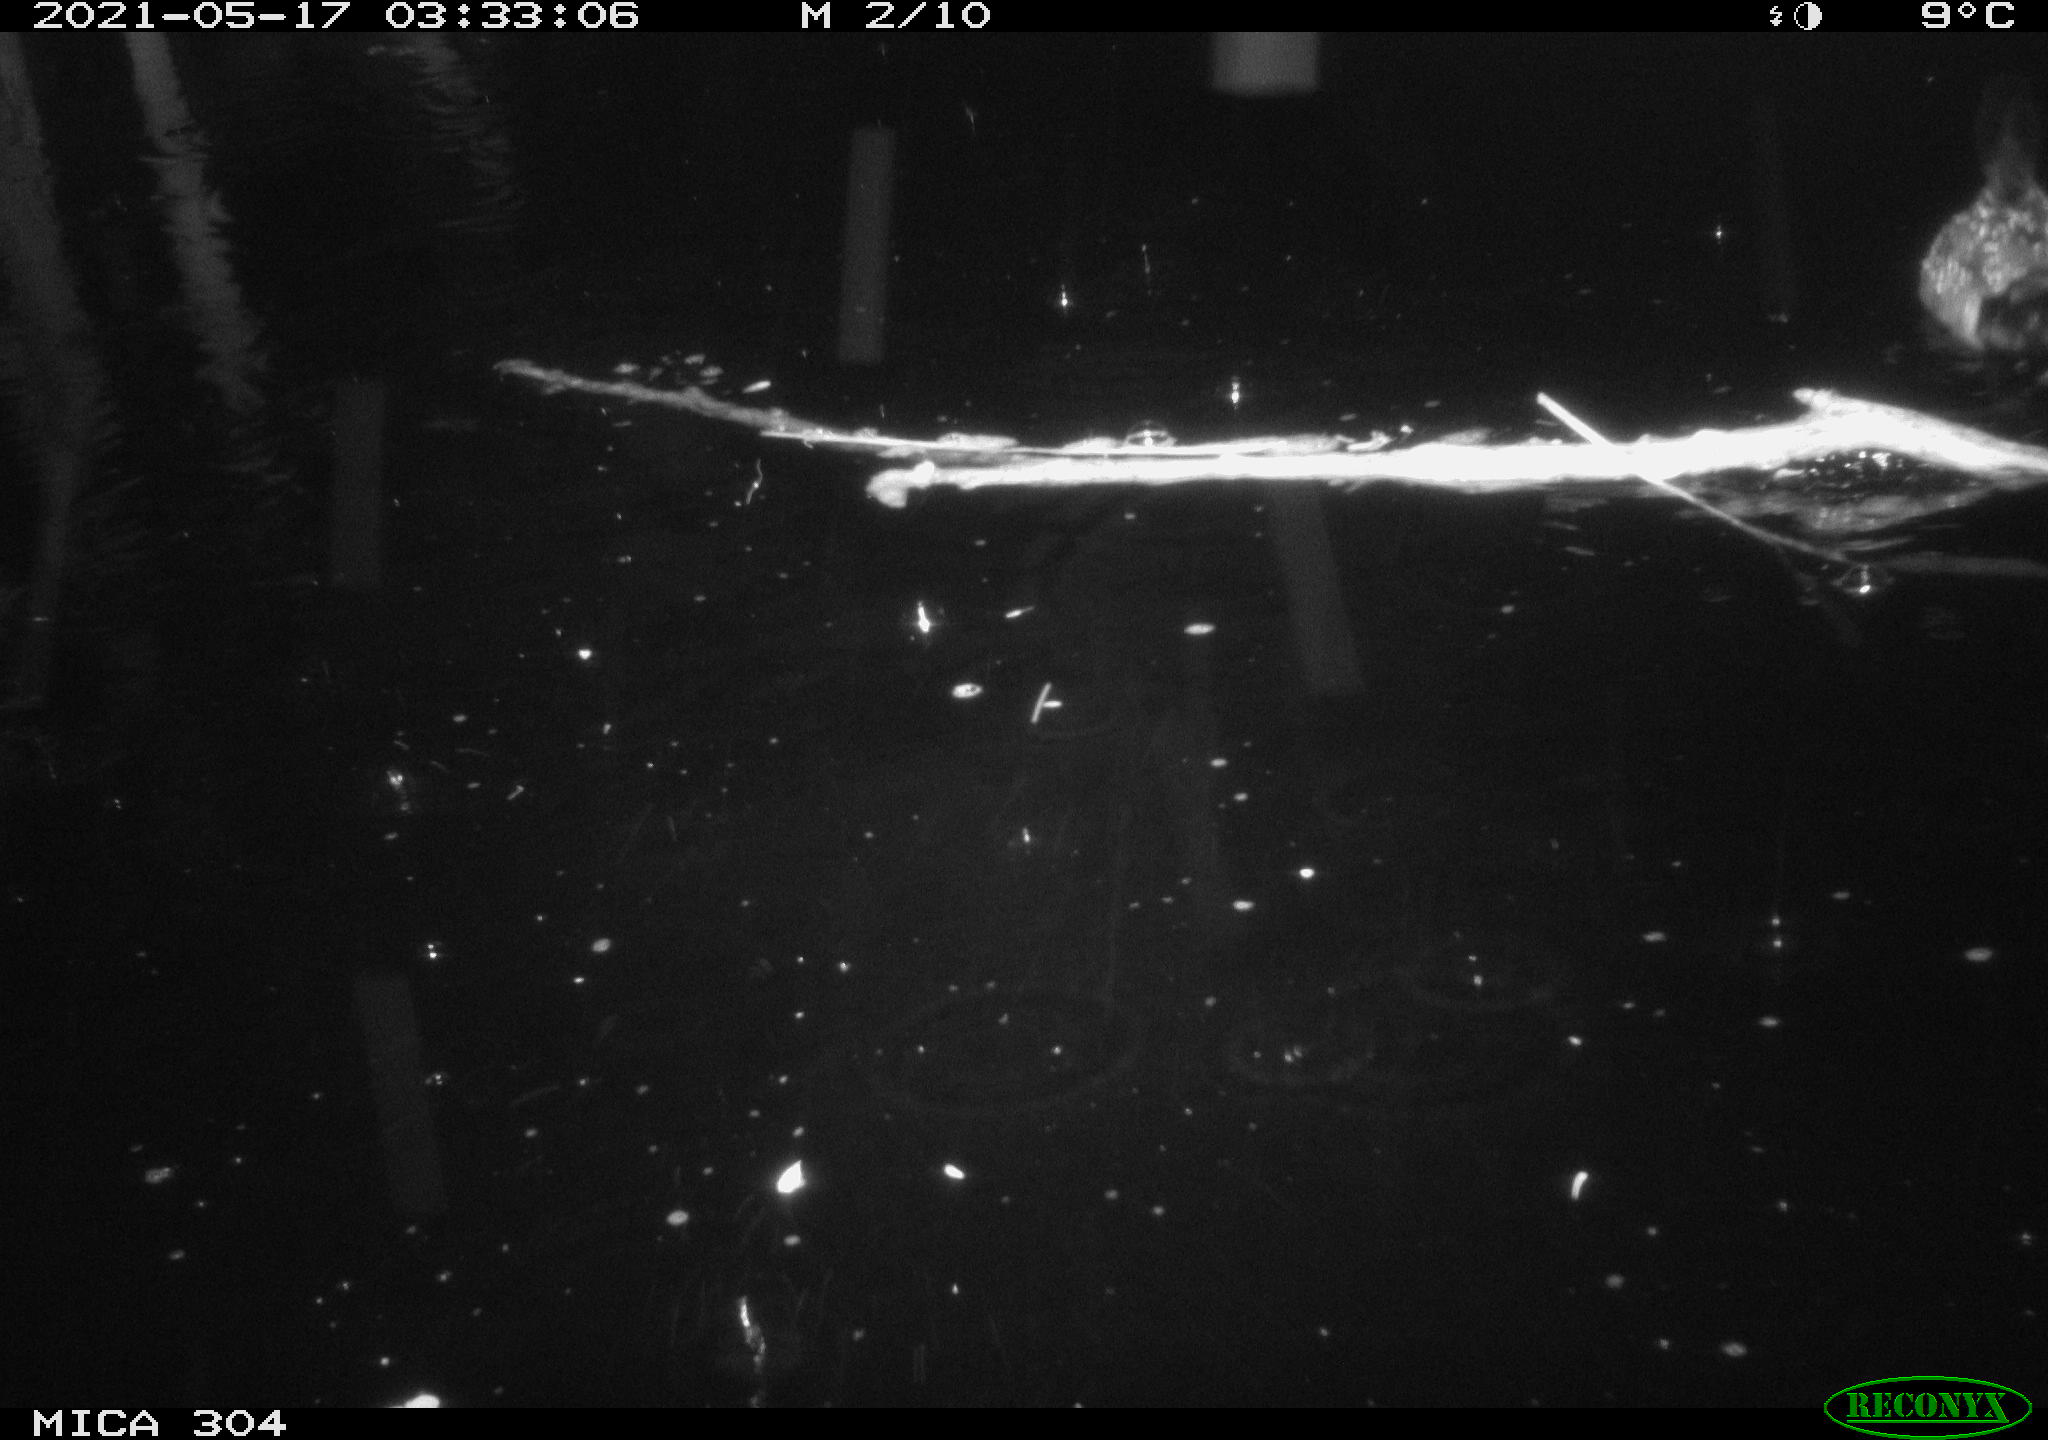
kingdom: Animalia
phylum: Chordata
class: Aves
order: Anseriformes
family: Anatidae
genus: Anas
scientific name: Anas platyrhynchos
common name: Mallard
